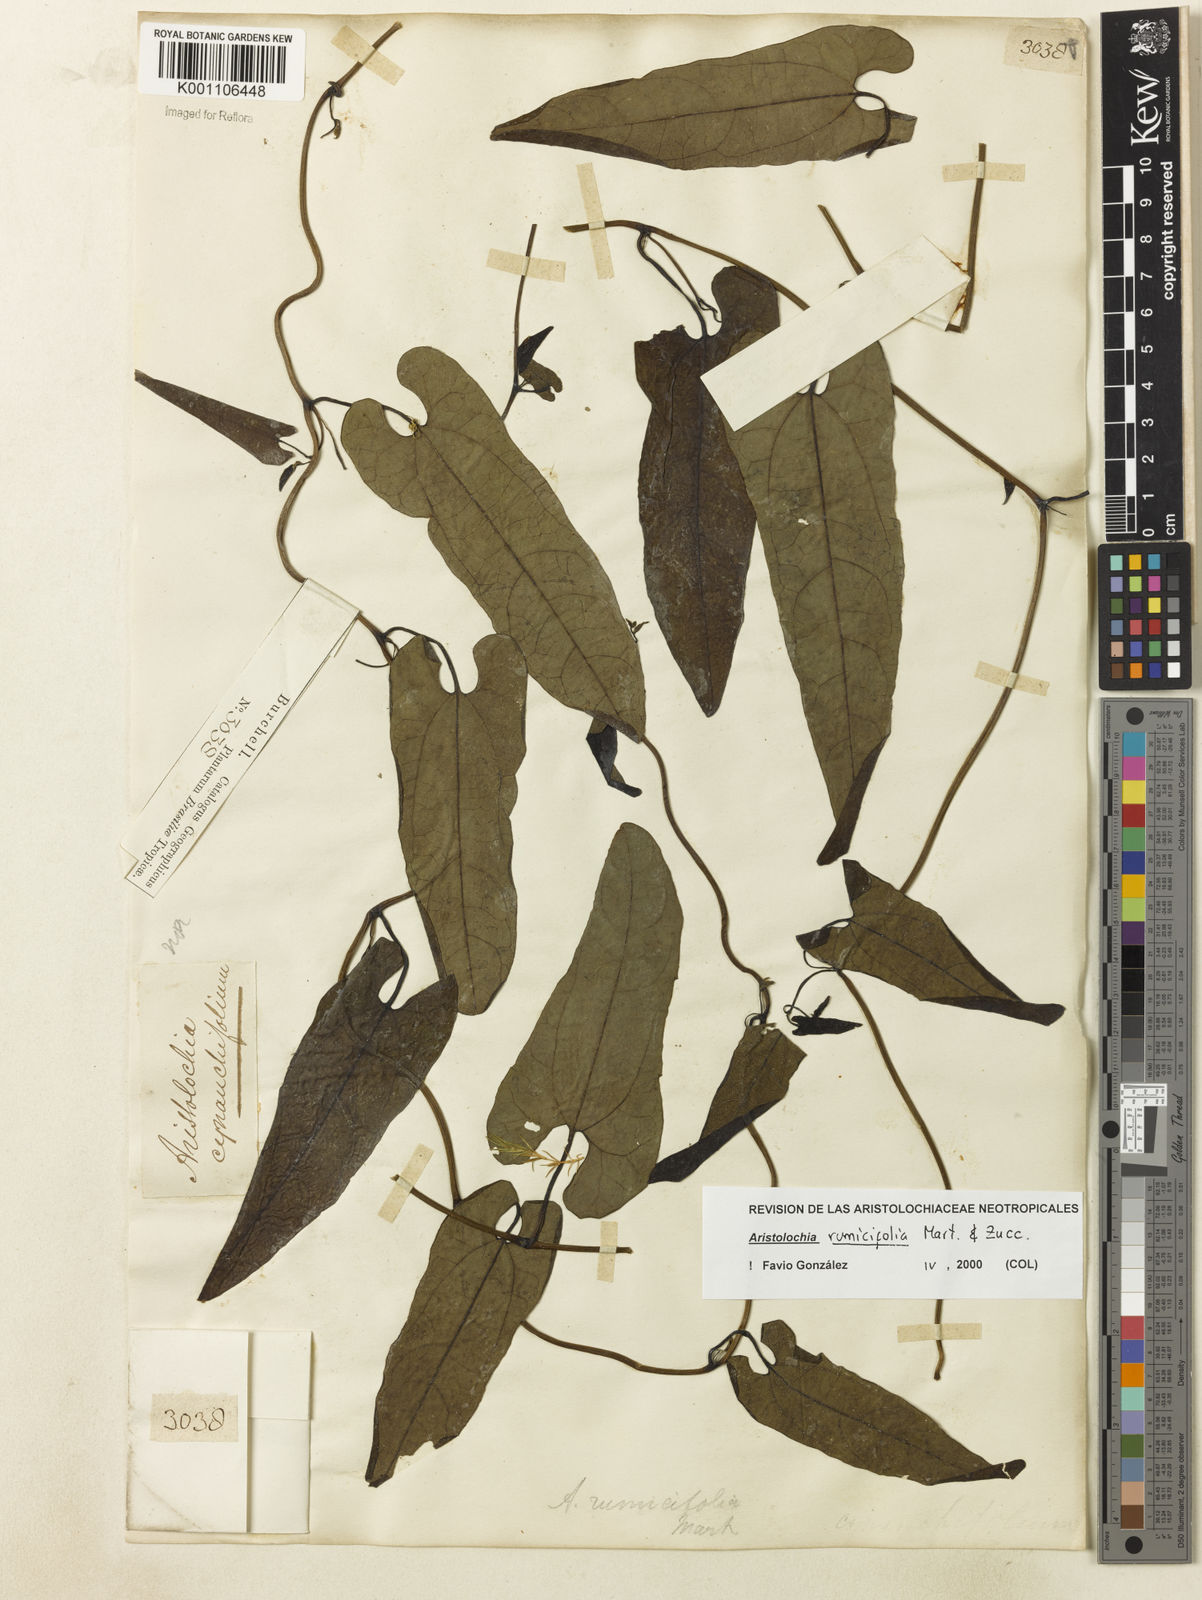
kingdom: Plantae
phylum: Tracheophyta
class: Magnoliopsida
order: Piperales
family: Aristolochiaceae
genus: Aristolochia
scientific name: Aristolochia rumicifolia
